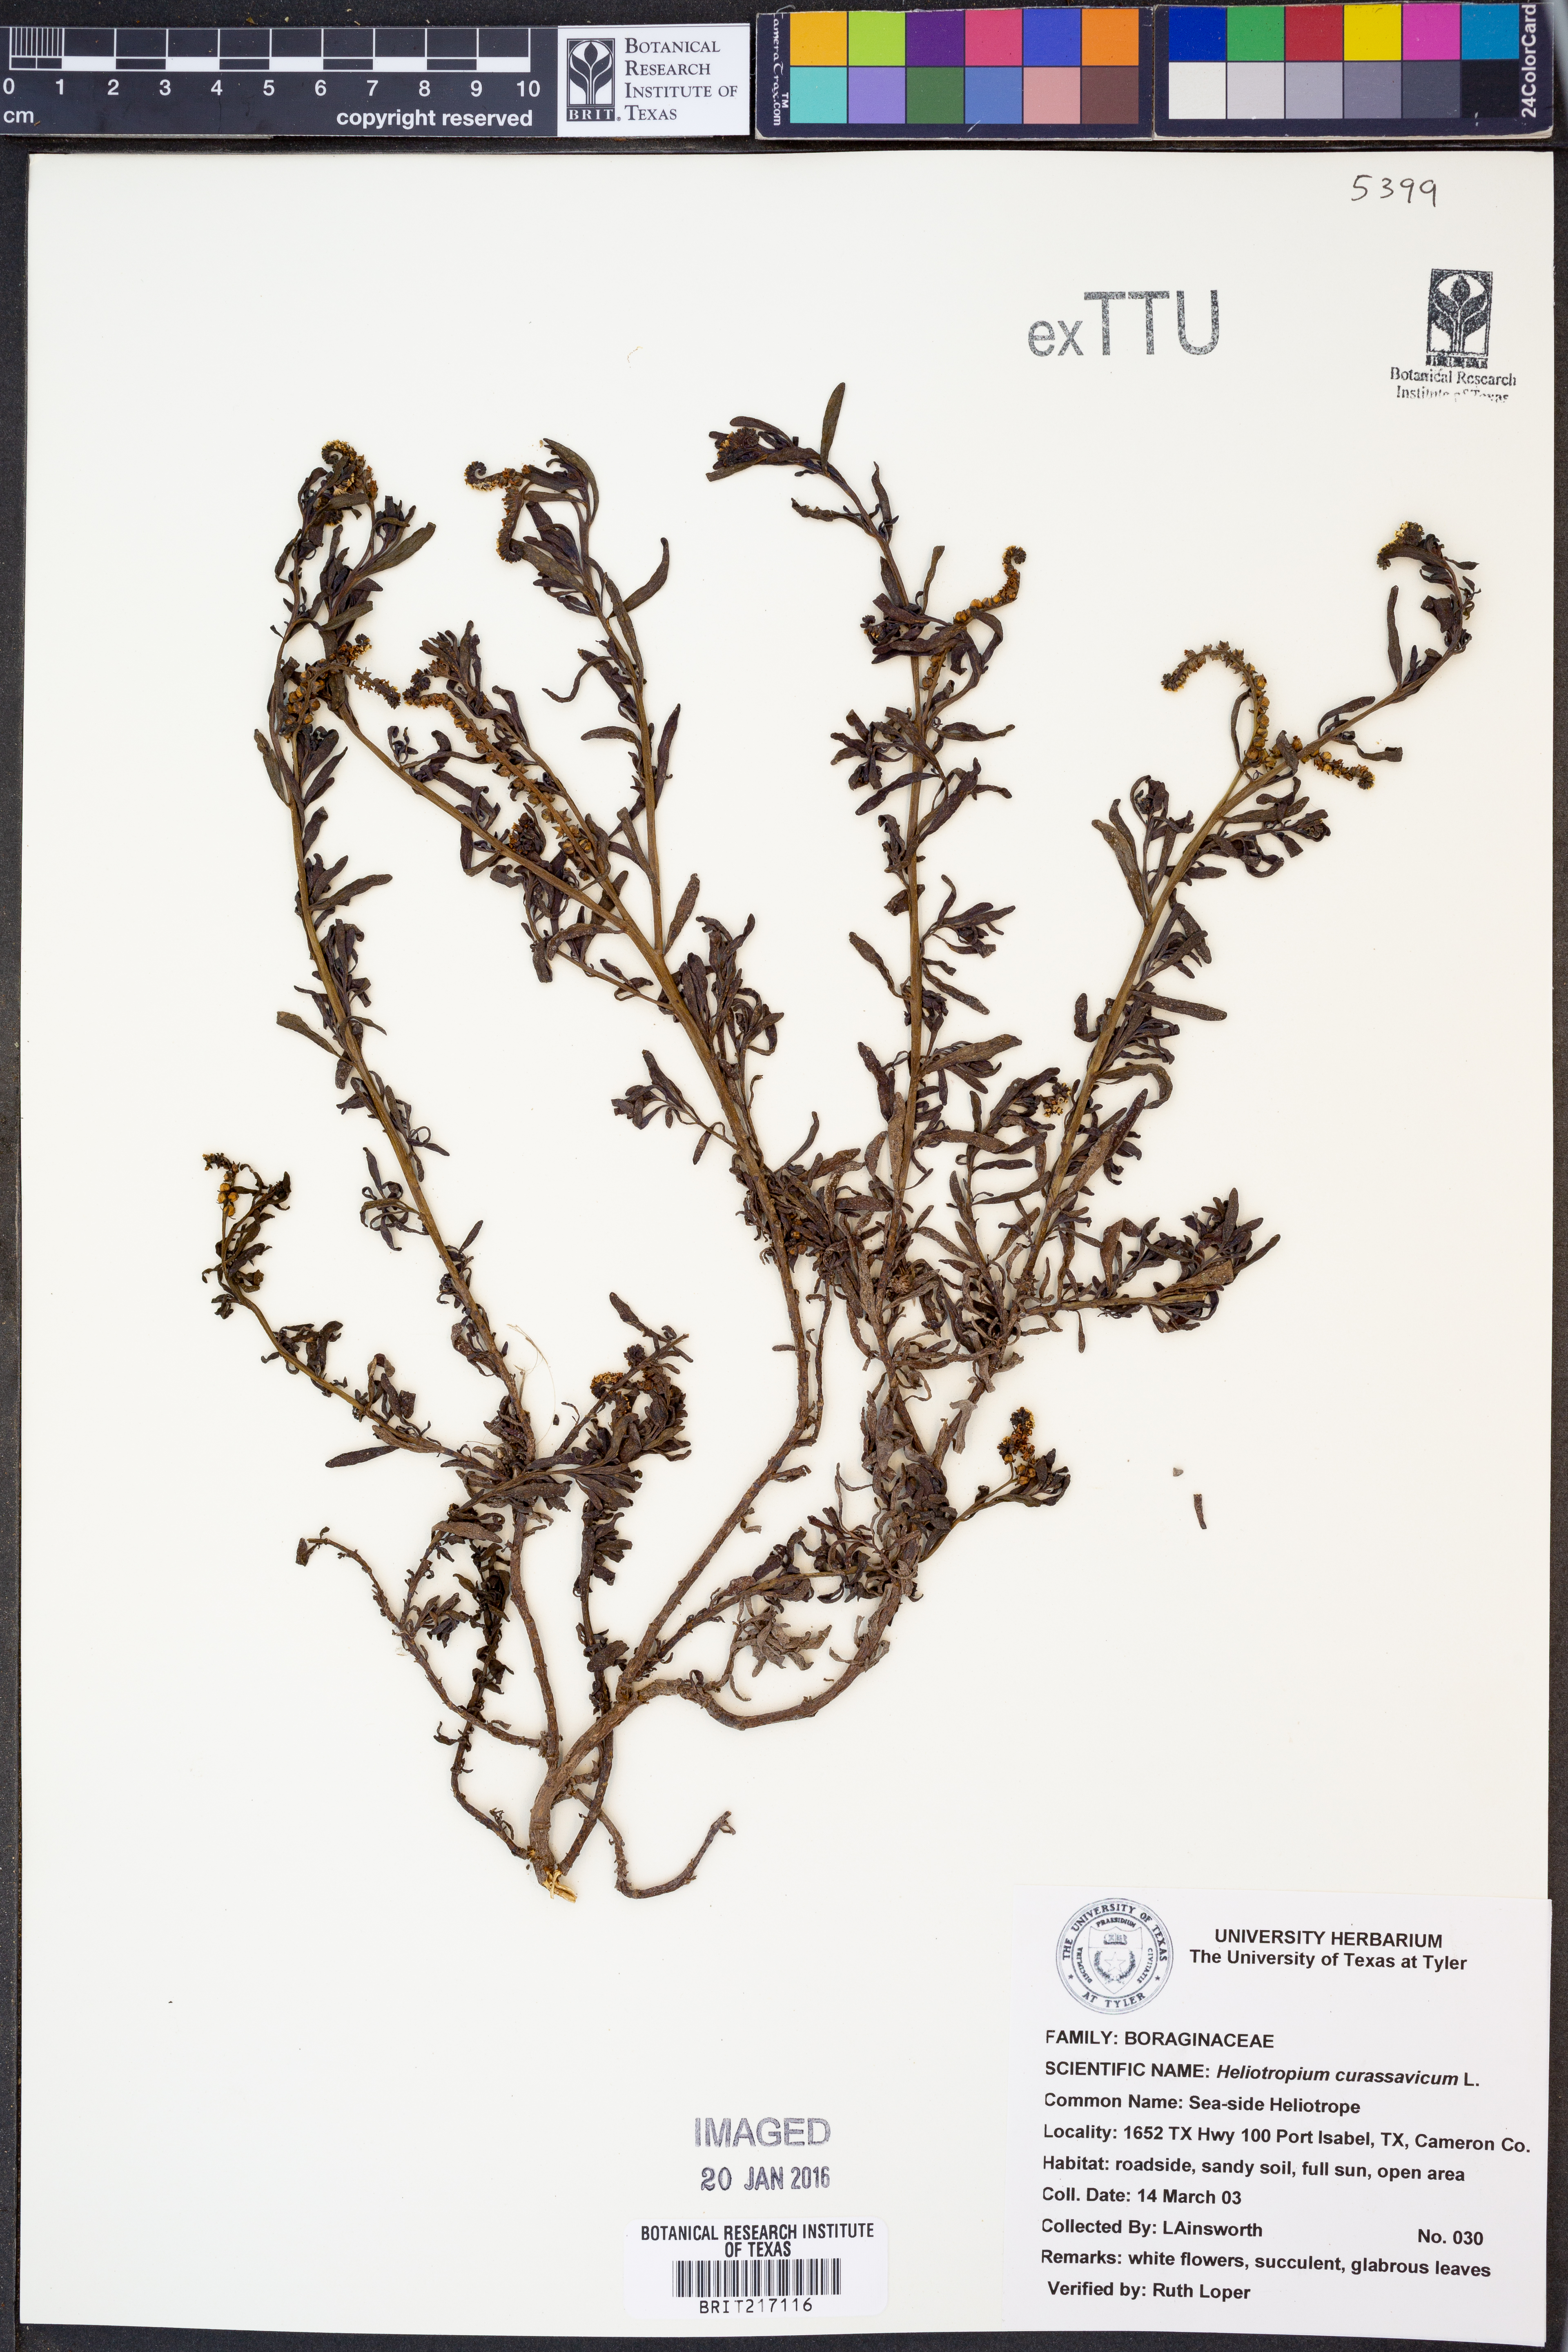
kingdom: Plantae
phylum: Tracheophyta
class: Magnoliopsida
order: Boraginales
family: Heliotropiaceae
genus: Heliotropium
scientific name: Heliotropium curassavicum
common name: Seaside heliotrope
